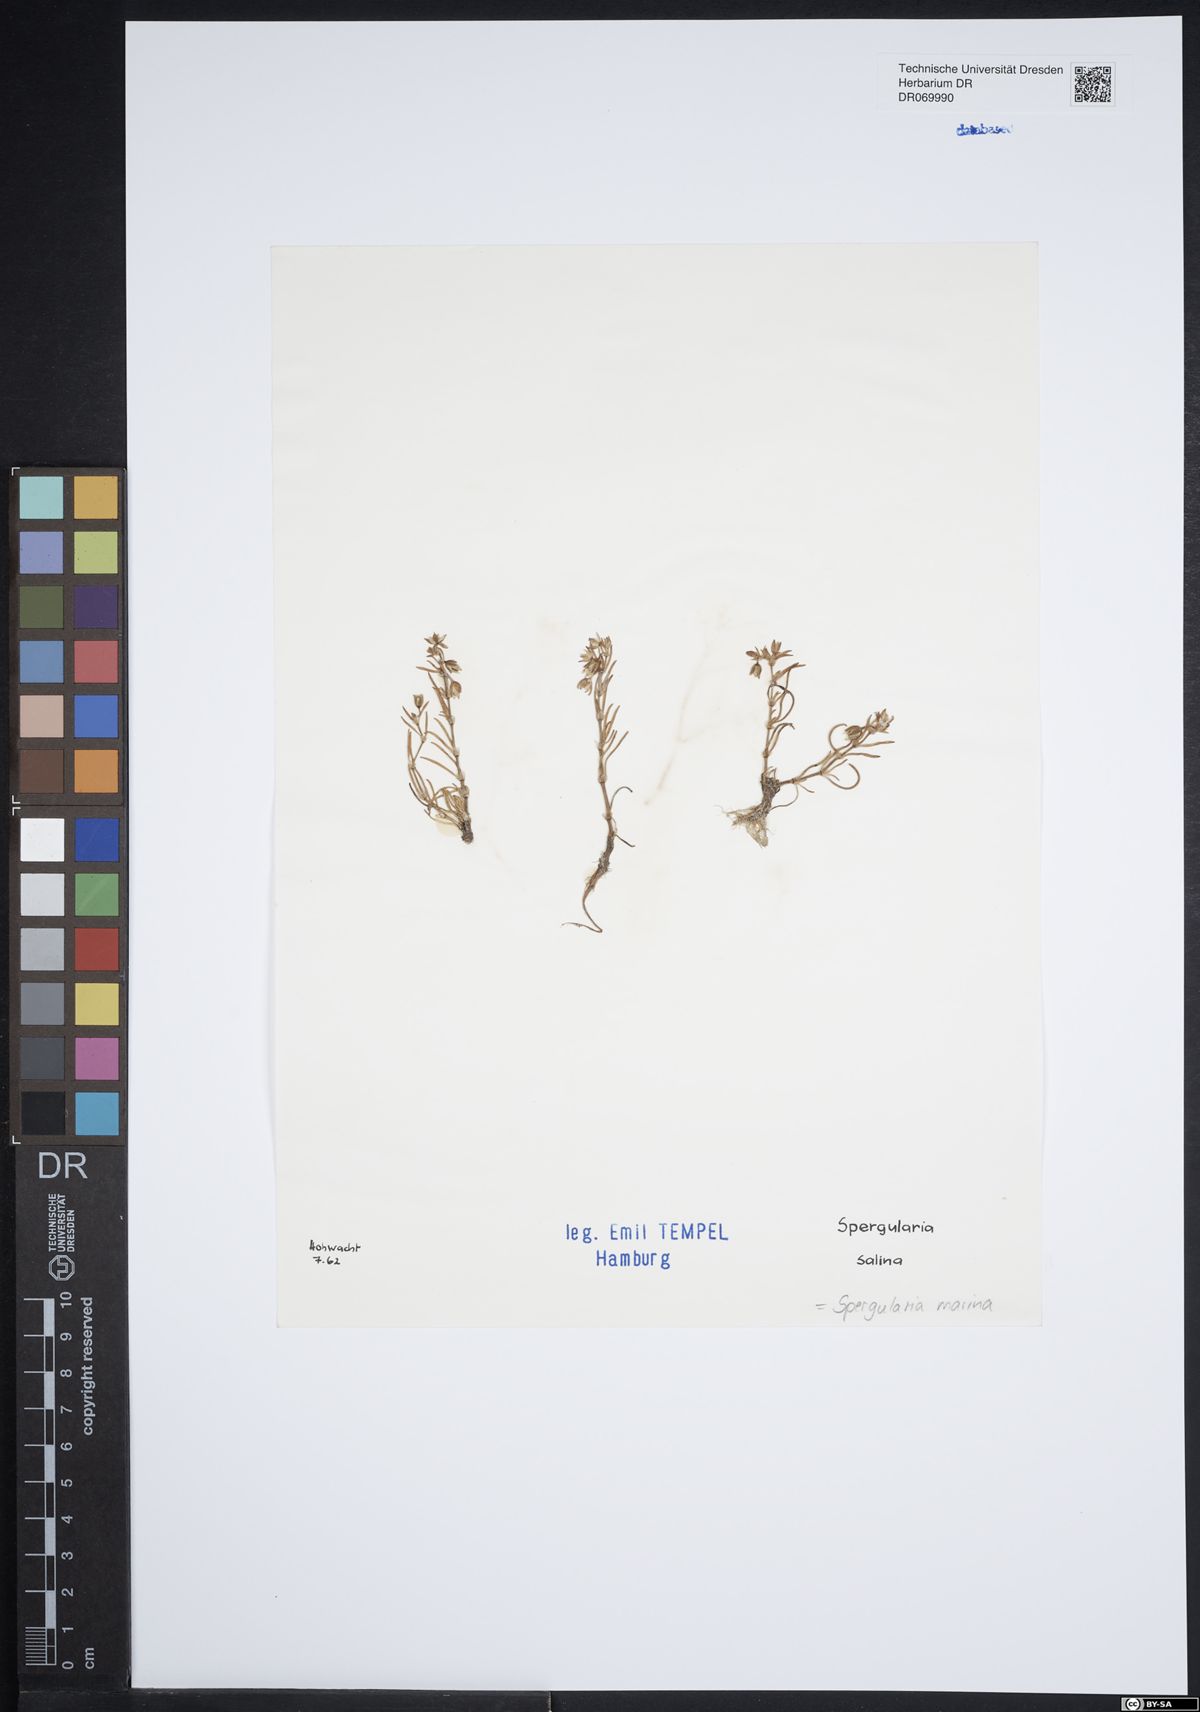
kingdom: Plantae
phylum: Tracheophyta
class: Magnoliopsida
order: Caryophyllales
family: Caryophyllaceae
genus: Spergularia
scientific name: Spergularia marina
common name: Lesser sea-spurrey
